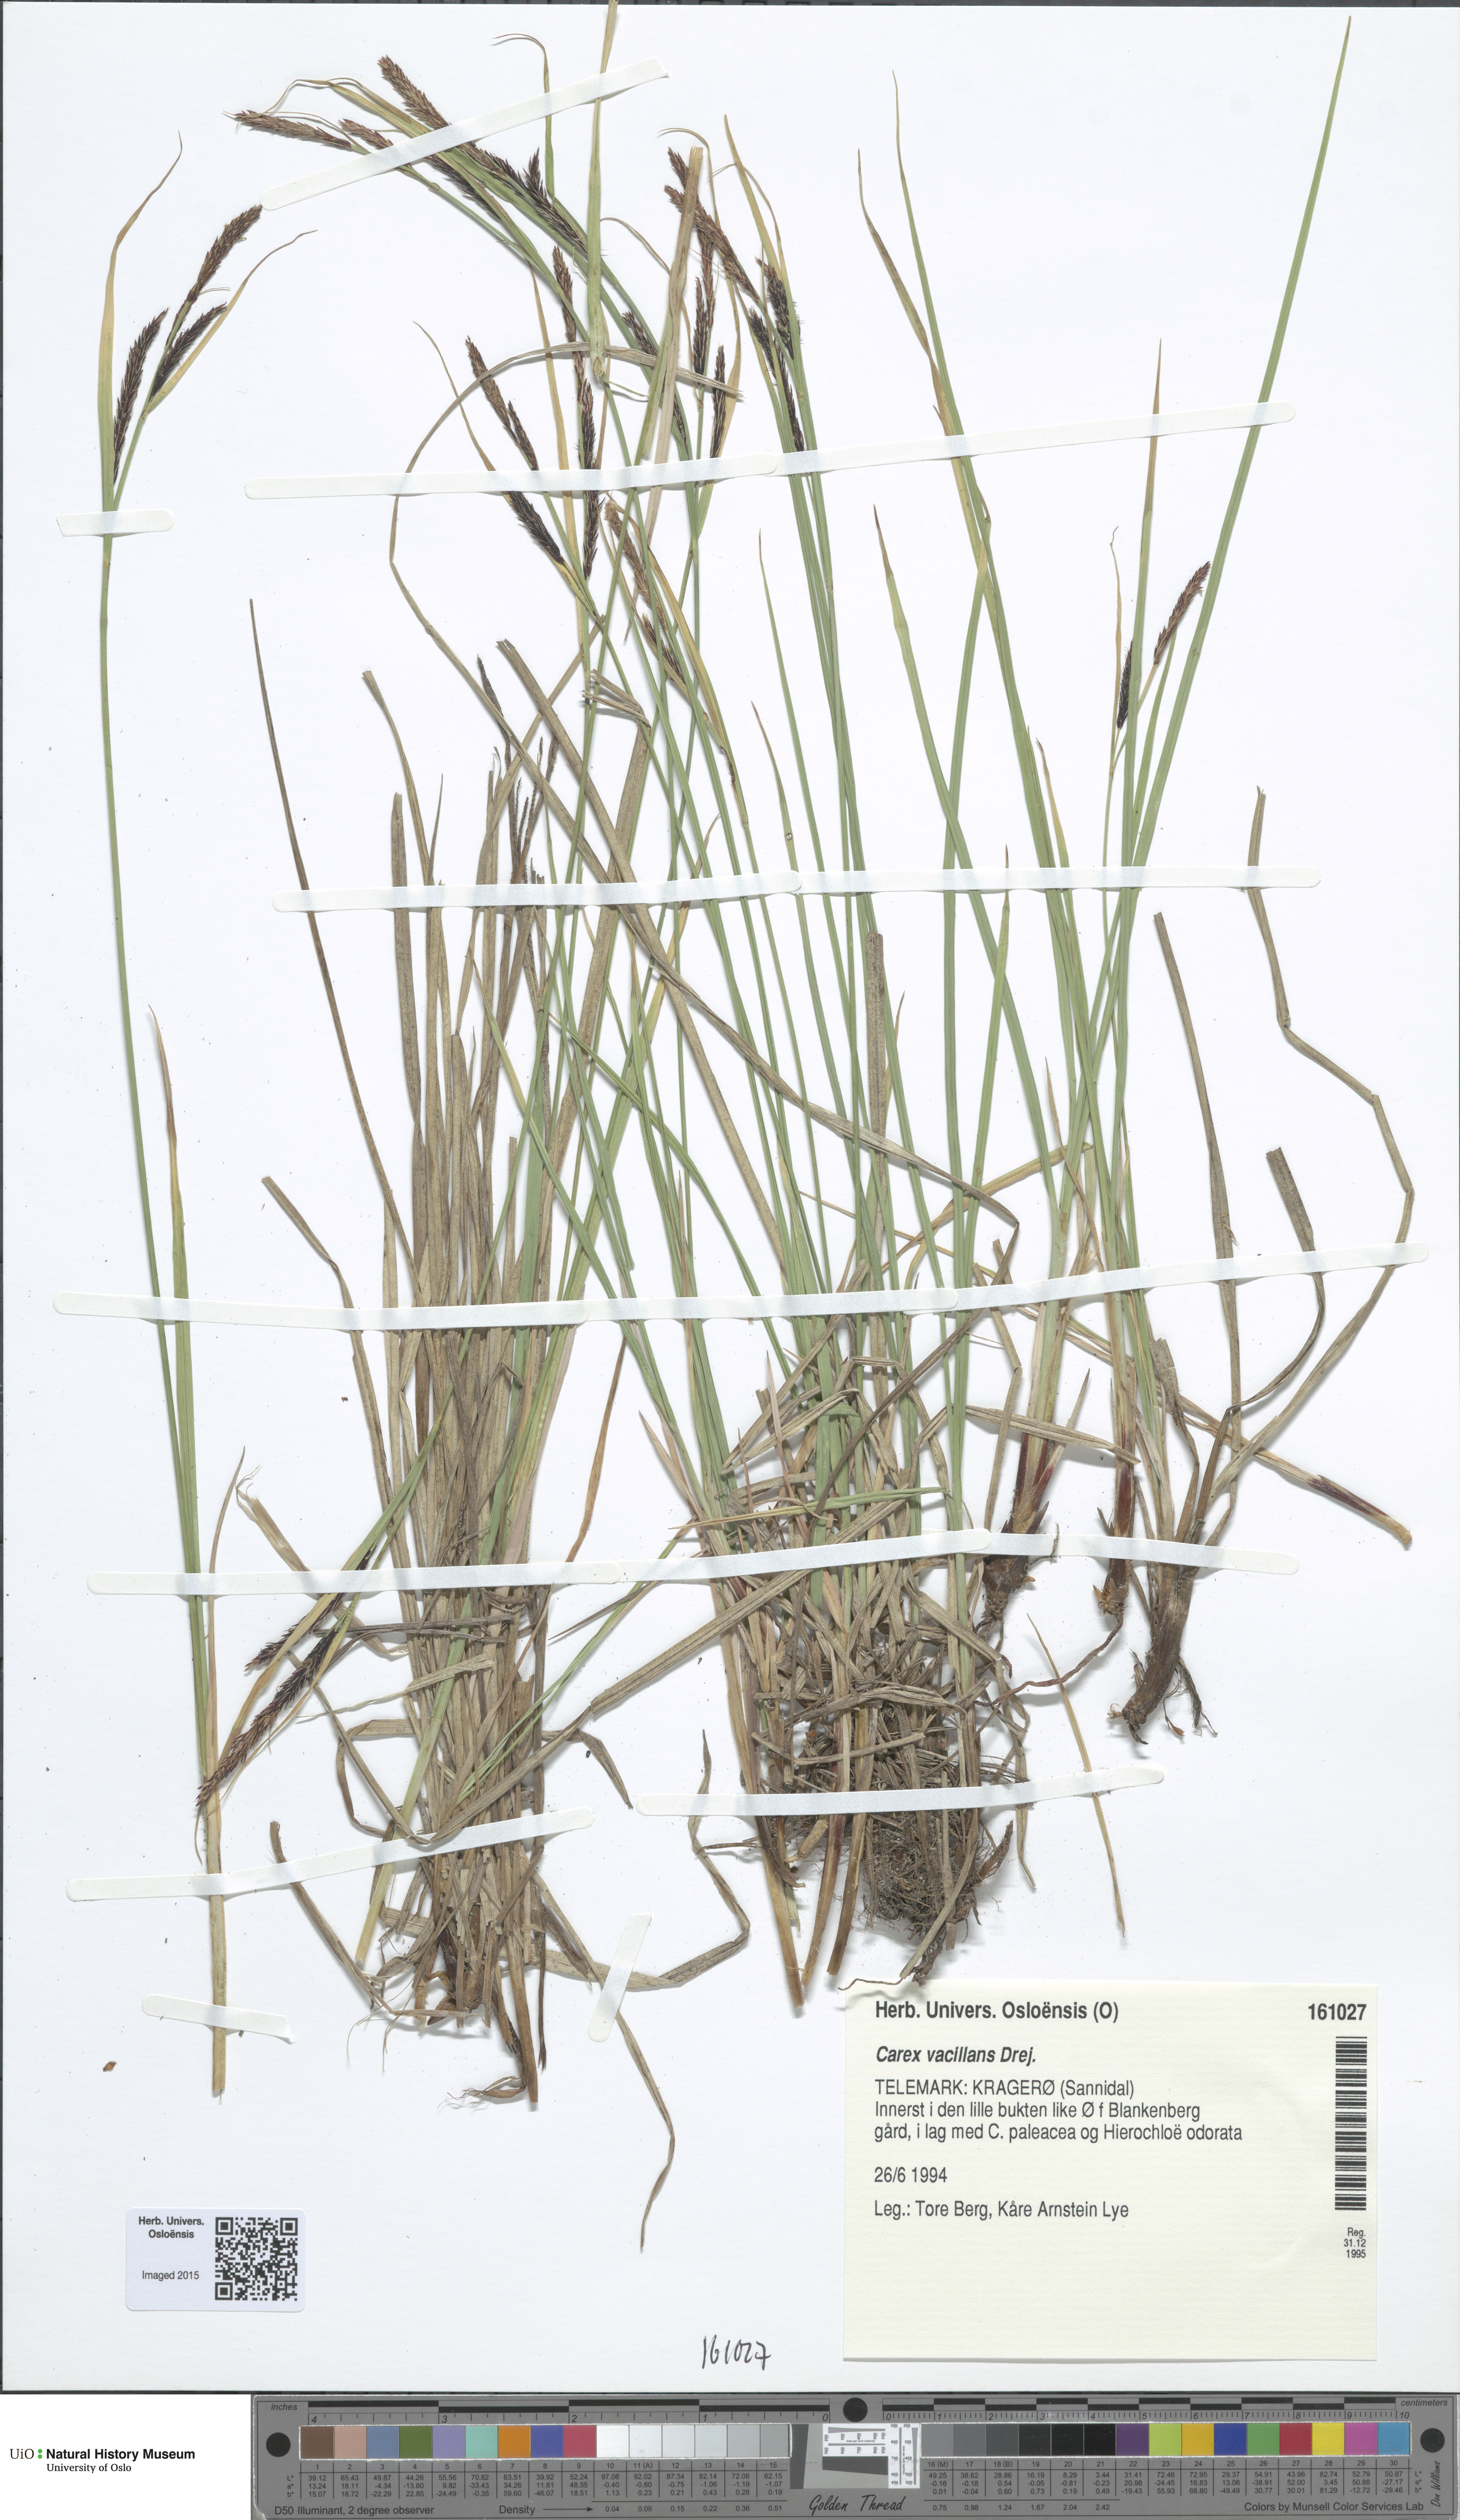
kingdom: Plantae
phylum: Tracheophyta
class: Liliopsida
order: Poales
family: Cyperaceae
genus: Carex
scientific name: Carex vacillans
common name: Sedge
